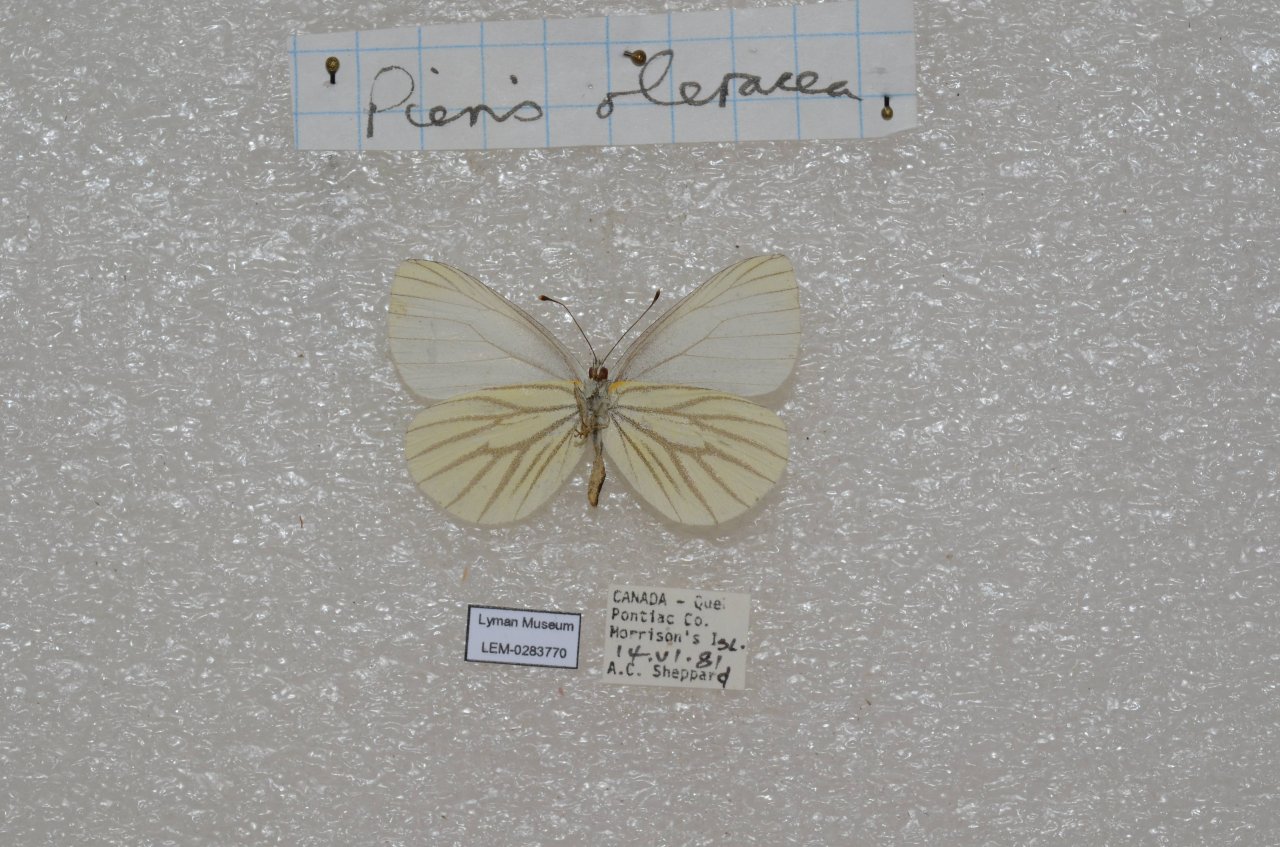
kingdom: Animalia
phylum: Arthropoda
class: Insecta
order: Lepidoptera
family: Pieridae
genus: Pieris
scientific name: Pieris oleracea
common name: Mustard White
